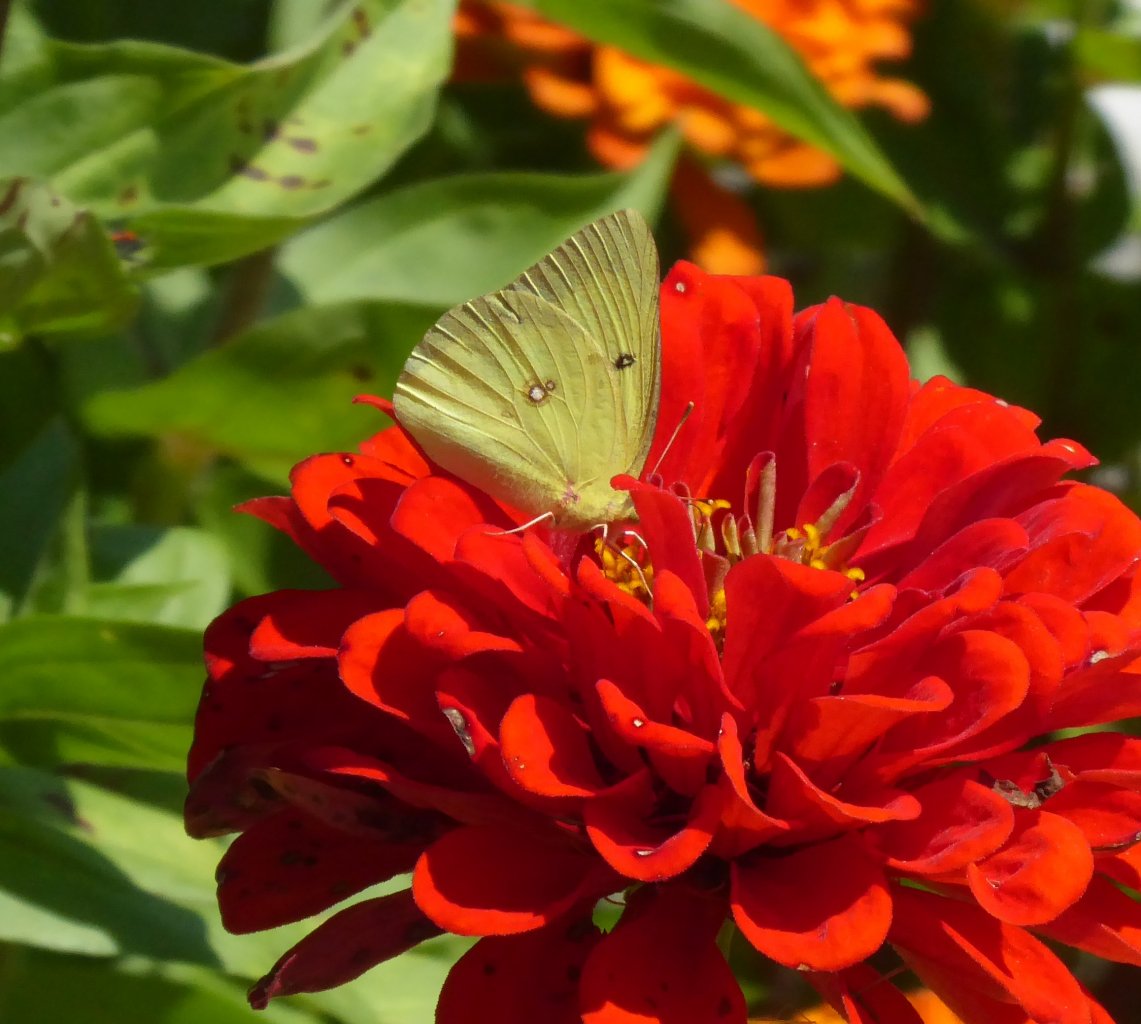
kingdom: Animalia
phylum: Arthropoda
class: Insecta
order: Lepidoptera
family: Pieridae
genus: Colias
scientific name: Colias philodice
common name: Clouded Sulphur
